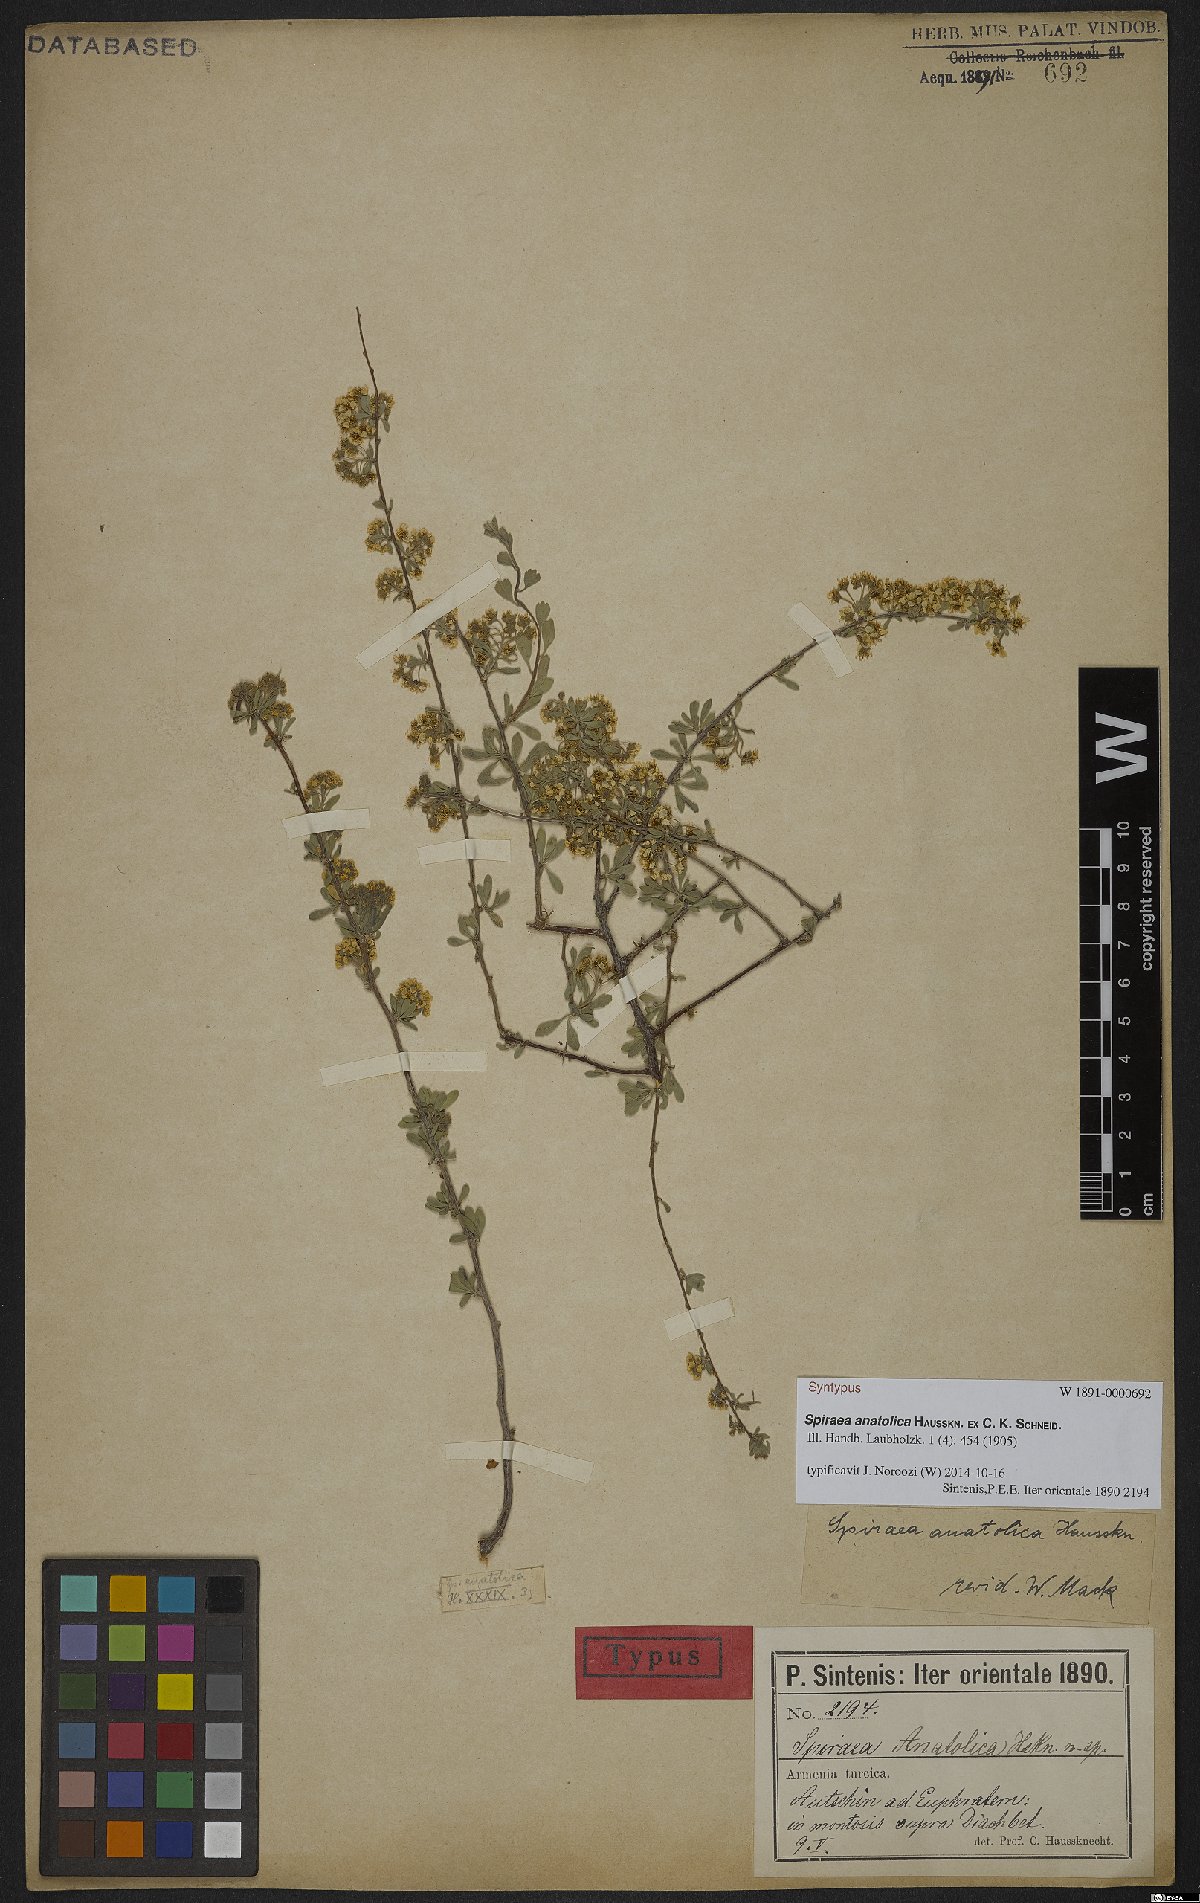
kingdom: Plantae
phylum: Tracheophyta
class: Magnoliopsida
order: Rosales
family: Rosaceae
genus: Spiraea
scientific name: Spiraea crenata
